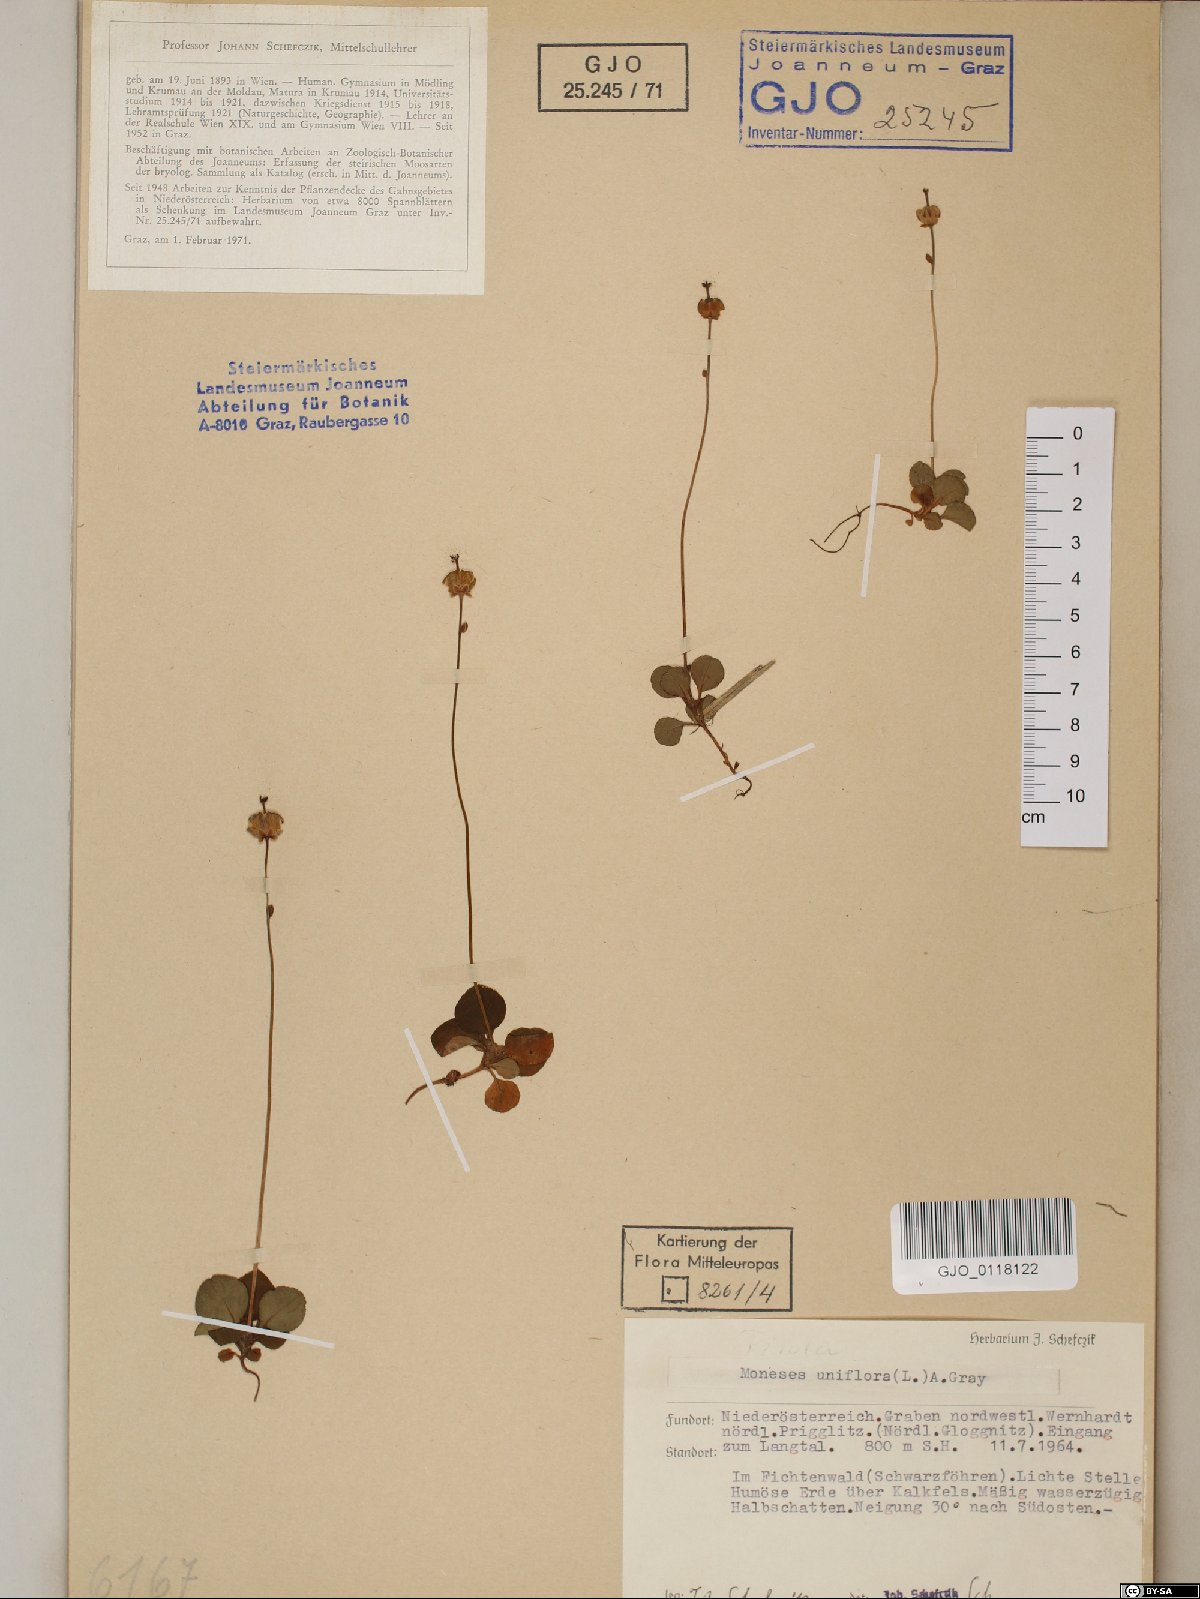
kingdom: Plantae
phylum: Tracheophyta
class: Magnoliopsida
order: Ericales
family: Ericaceae
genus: Moneses
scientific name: Moneses uniflora
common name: One-flowered wintergreen
